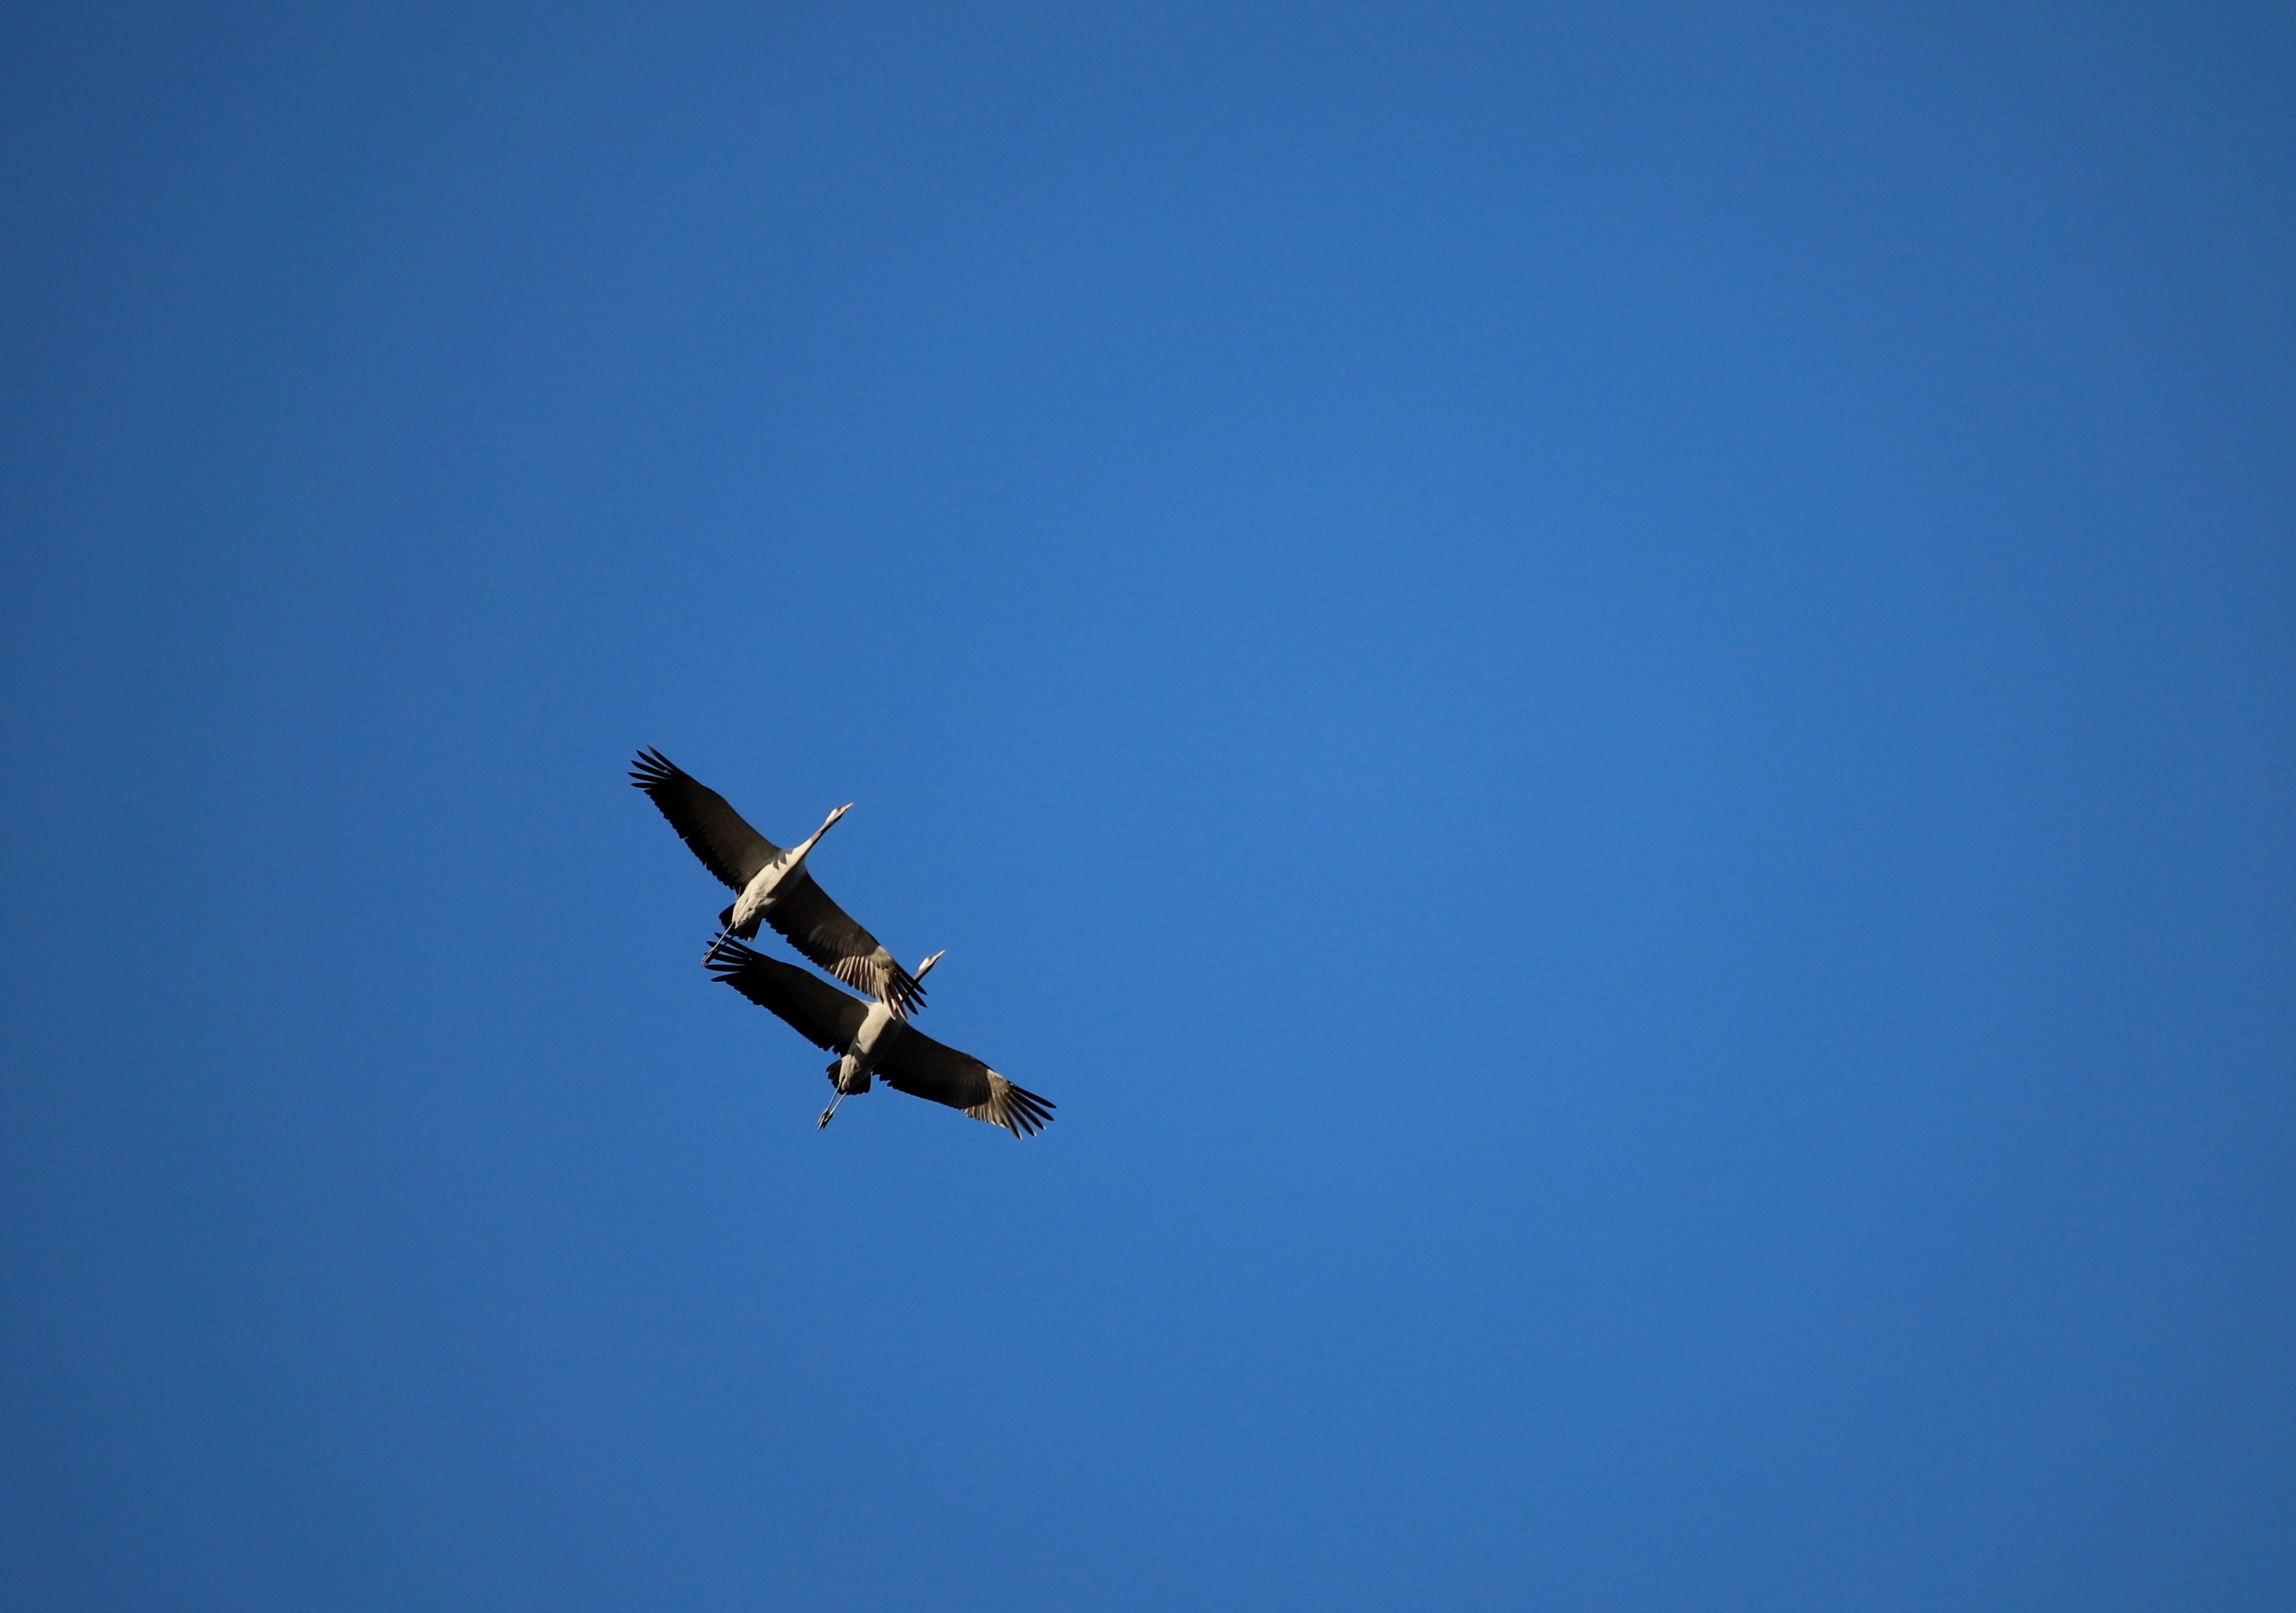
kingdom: Animalia
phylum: Chordata
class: Aves
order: Gruiformes
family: Gruidae
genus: Grus
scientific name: Grus grus
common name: Trane
